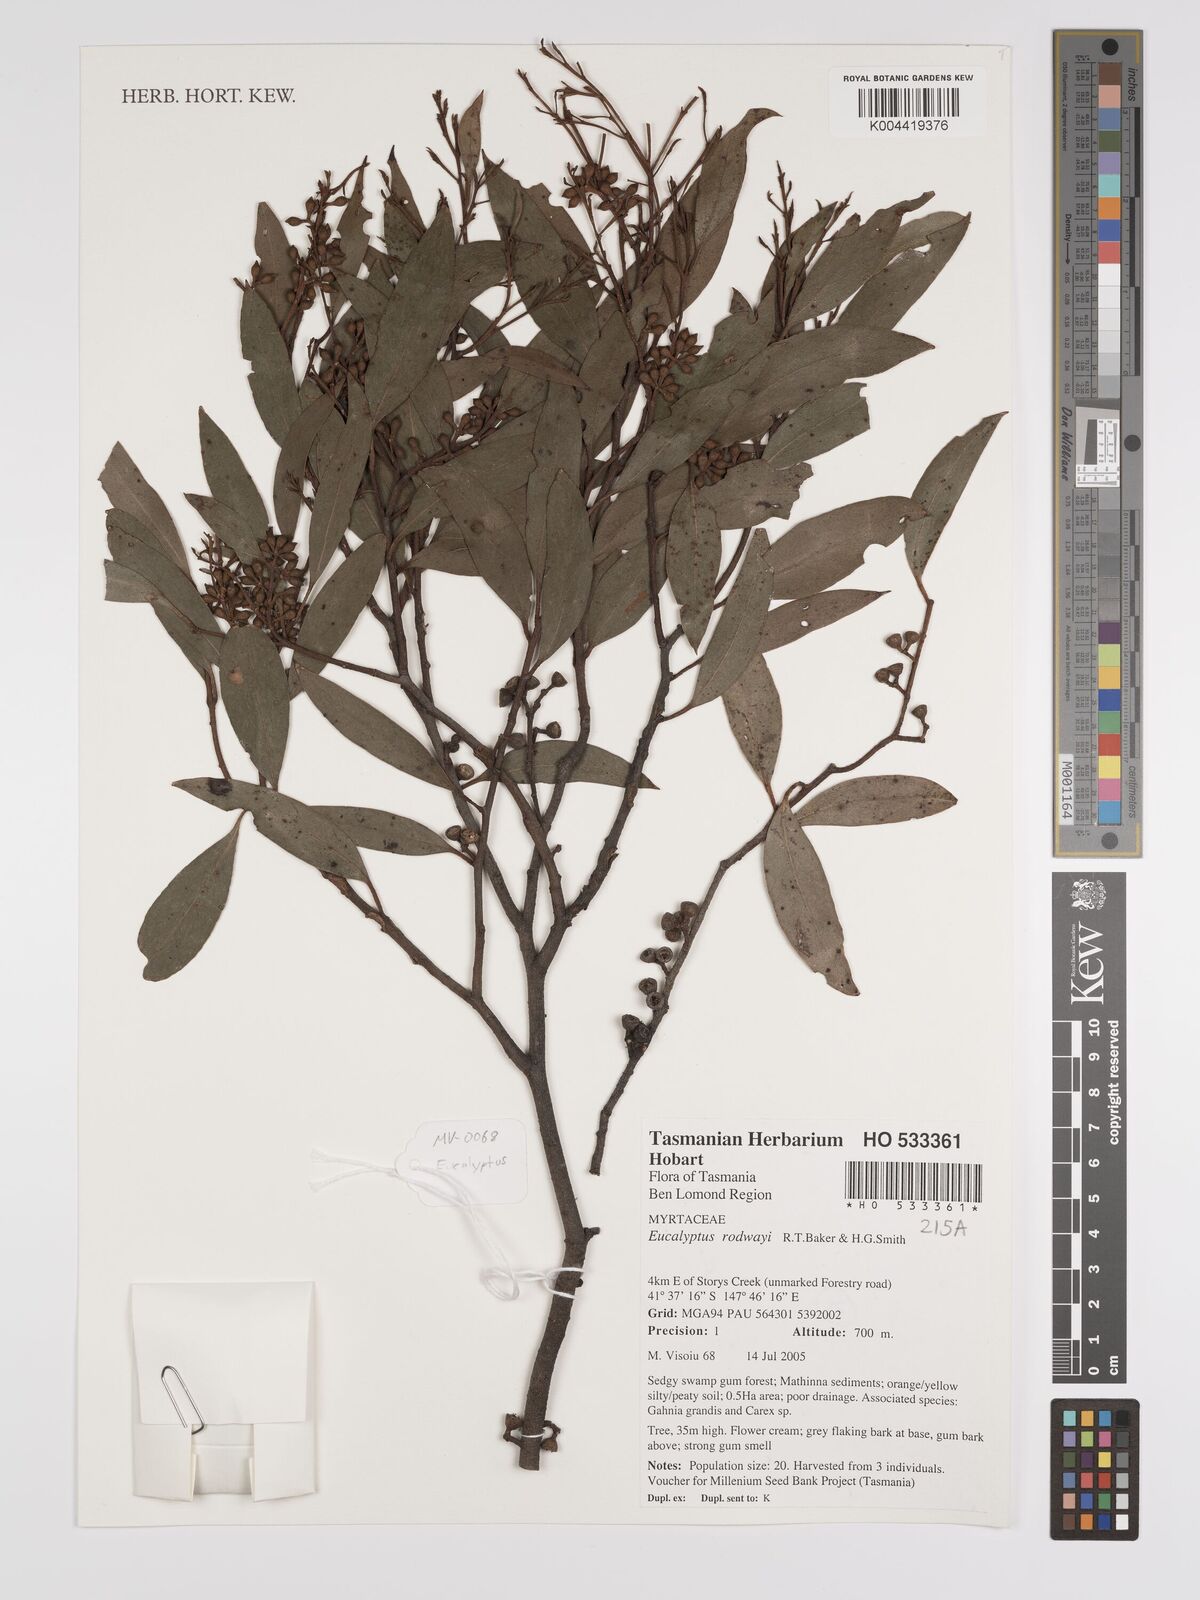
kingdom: Plantae
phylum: Tracheophyta
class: Magnoliopsida
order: Myrtales
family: Myrtaceae
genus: Eucalyptus
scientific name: Eucalyptus rodwayi
